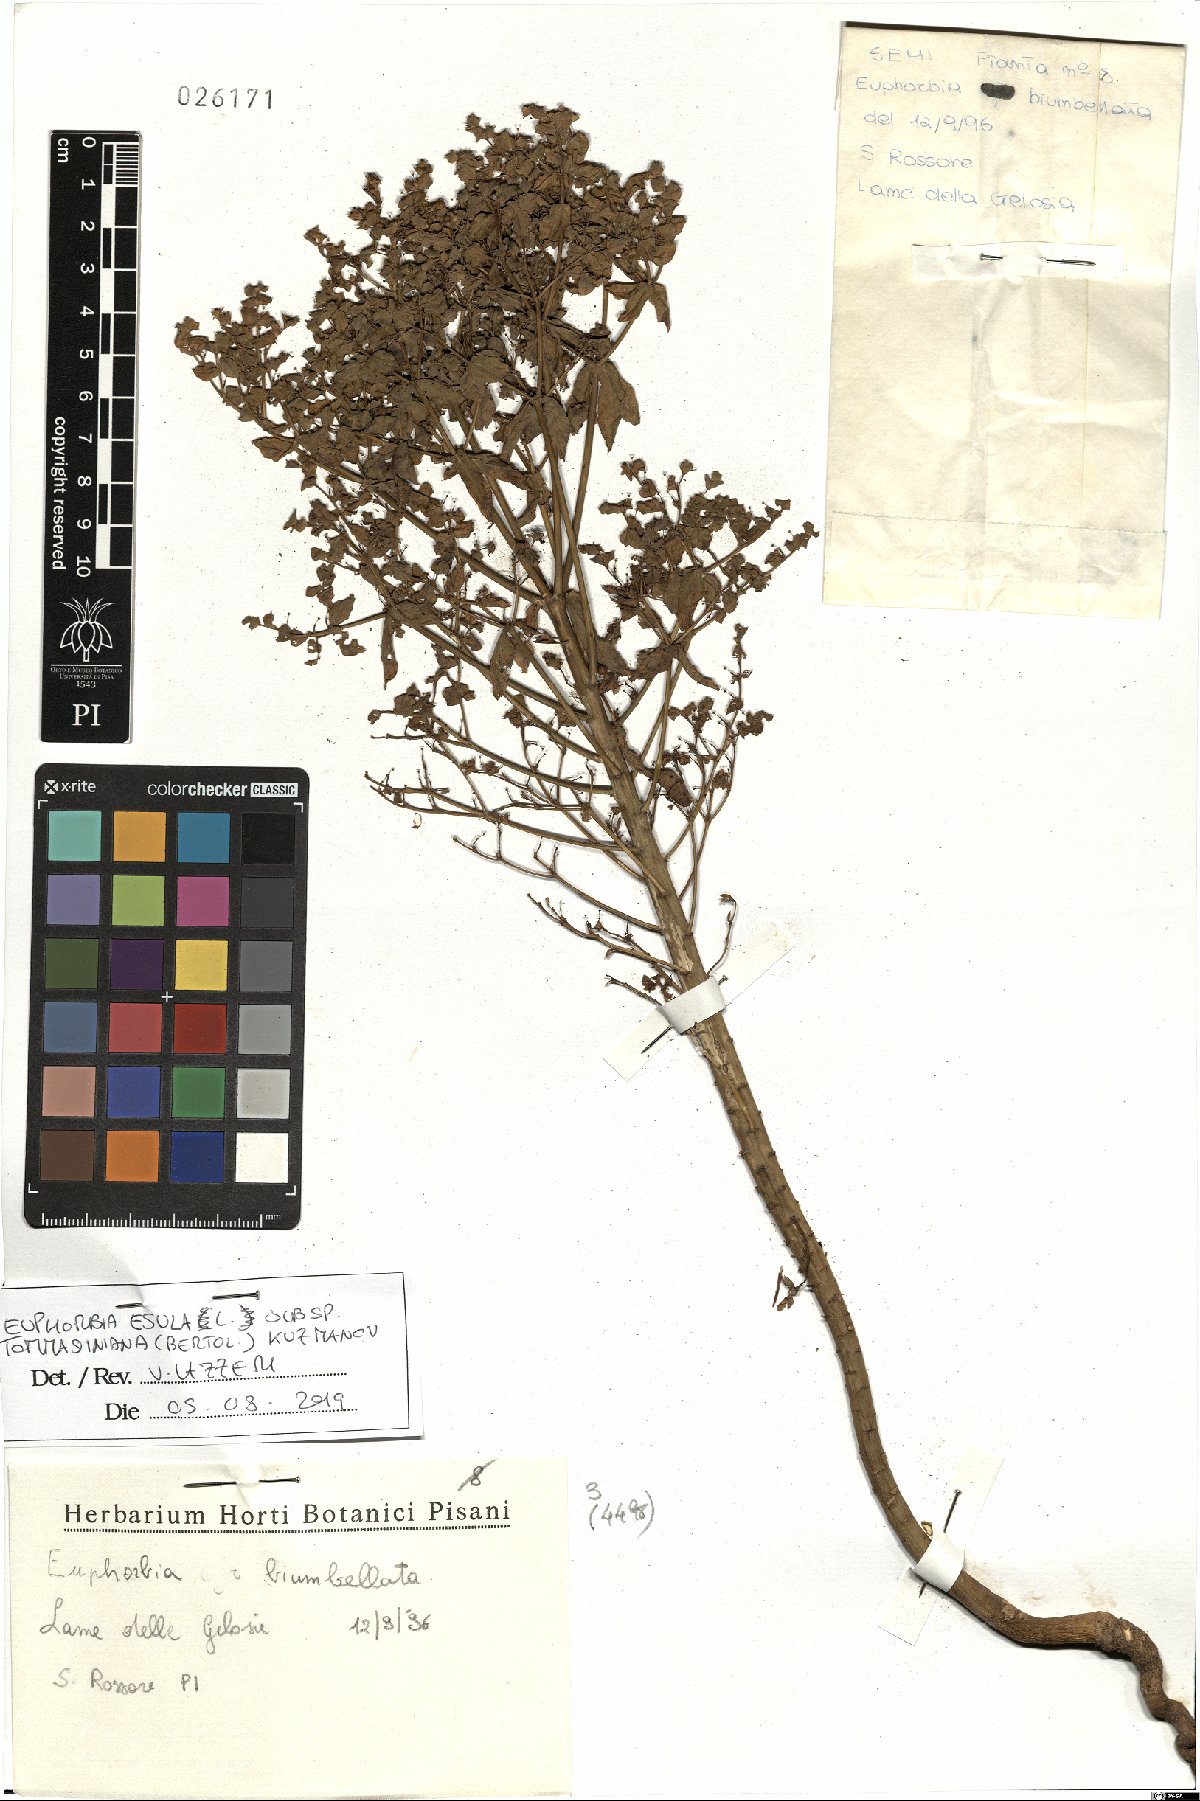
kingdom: Plantae
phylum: Tracheophyta
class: Magnoliopsida
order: Malpighiales
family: Euphorbiaceae
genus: Euphorbia
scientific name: Euphorbia tommasiniana
